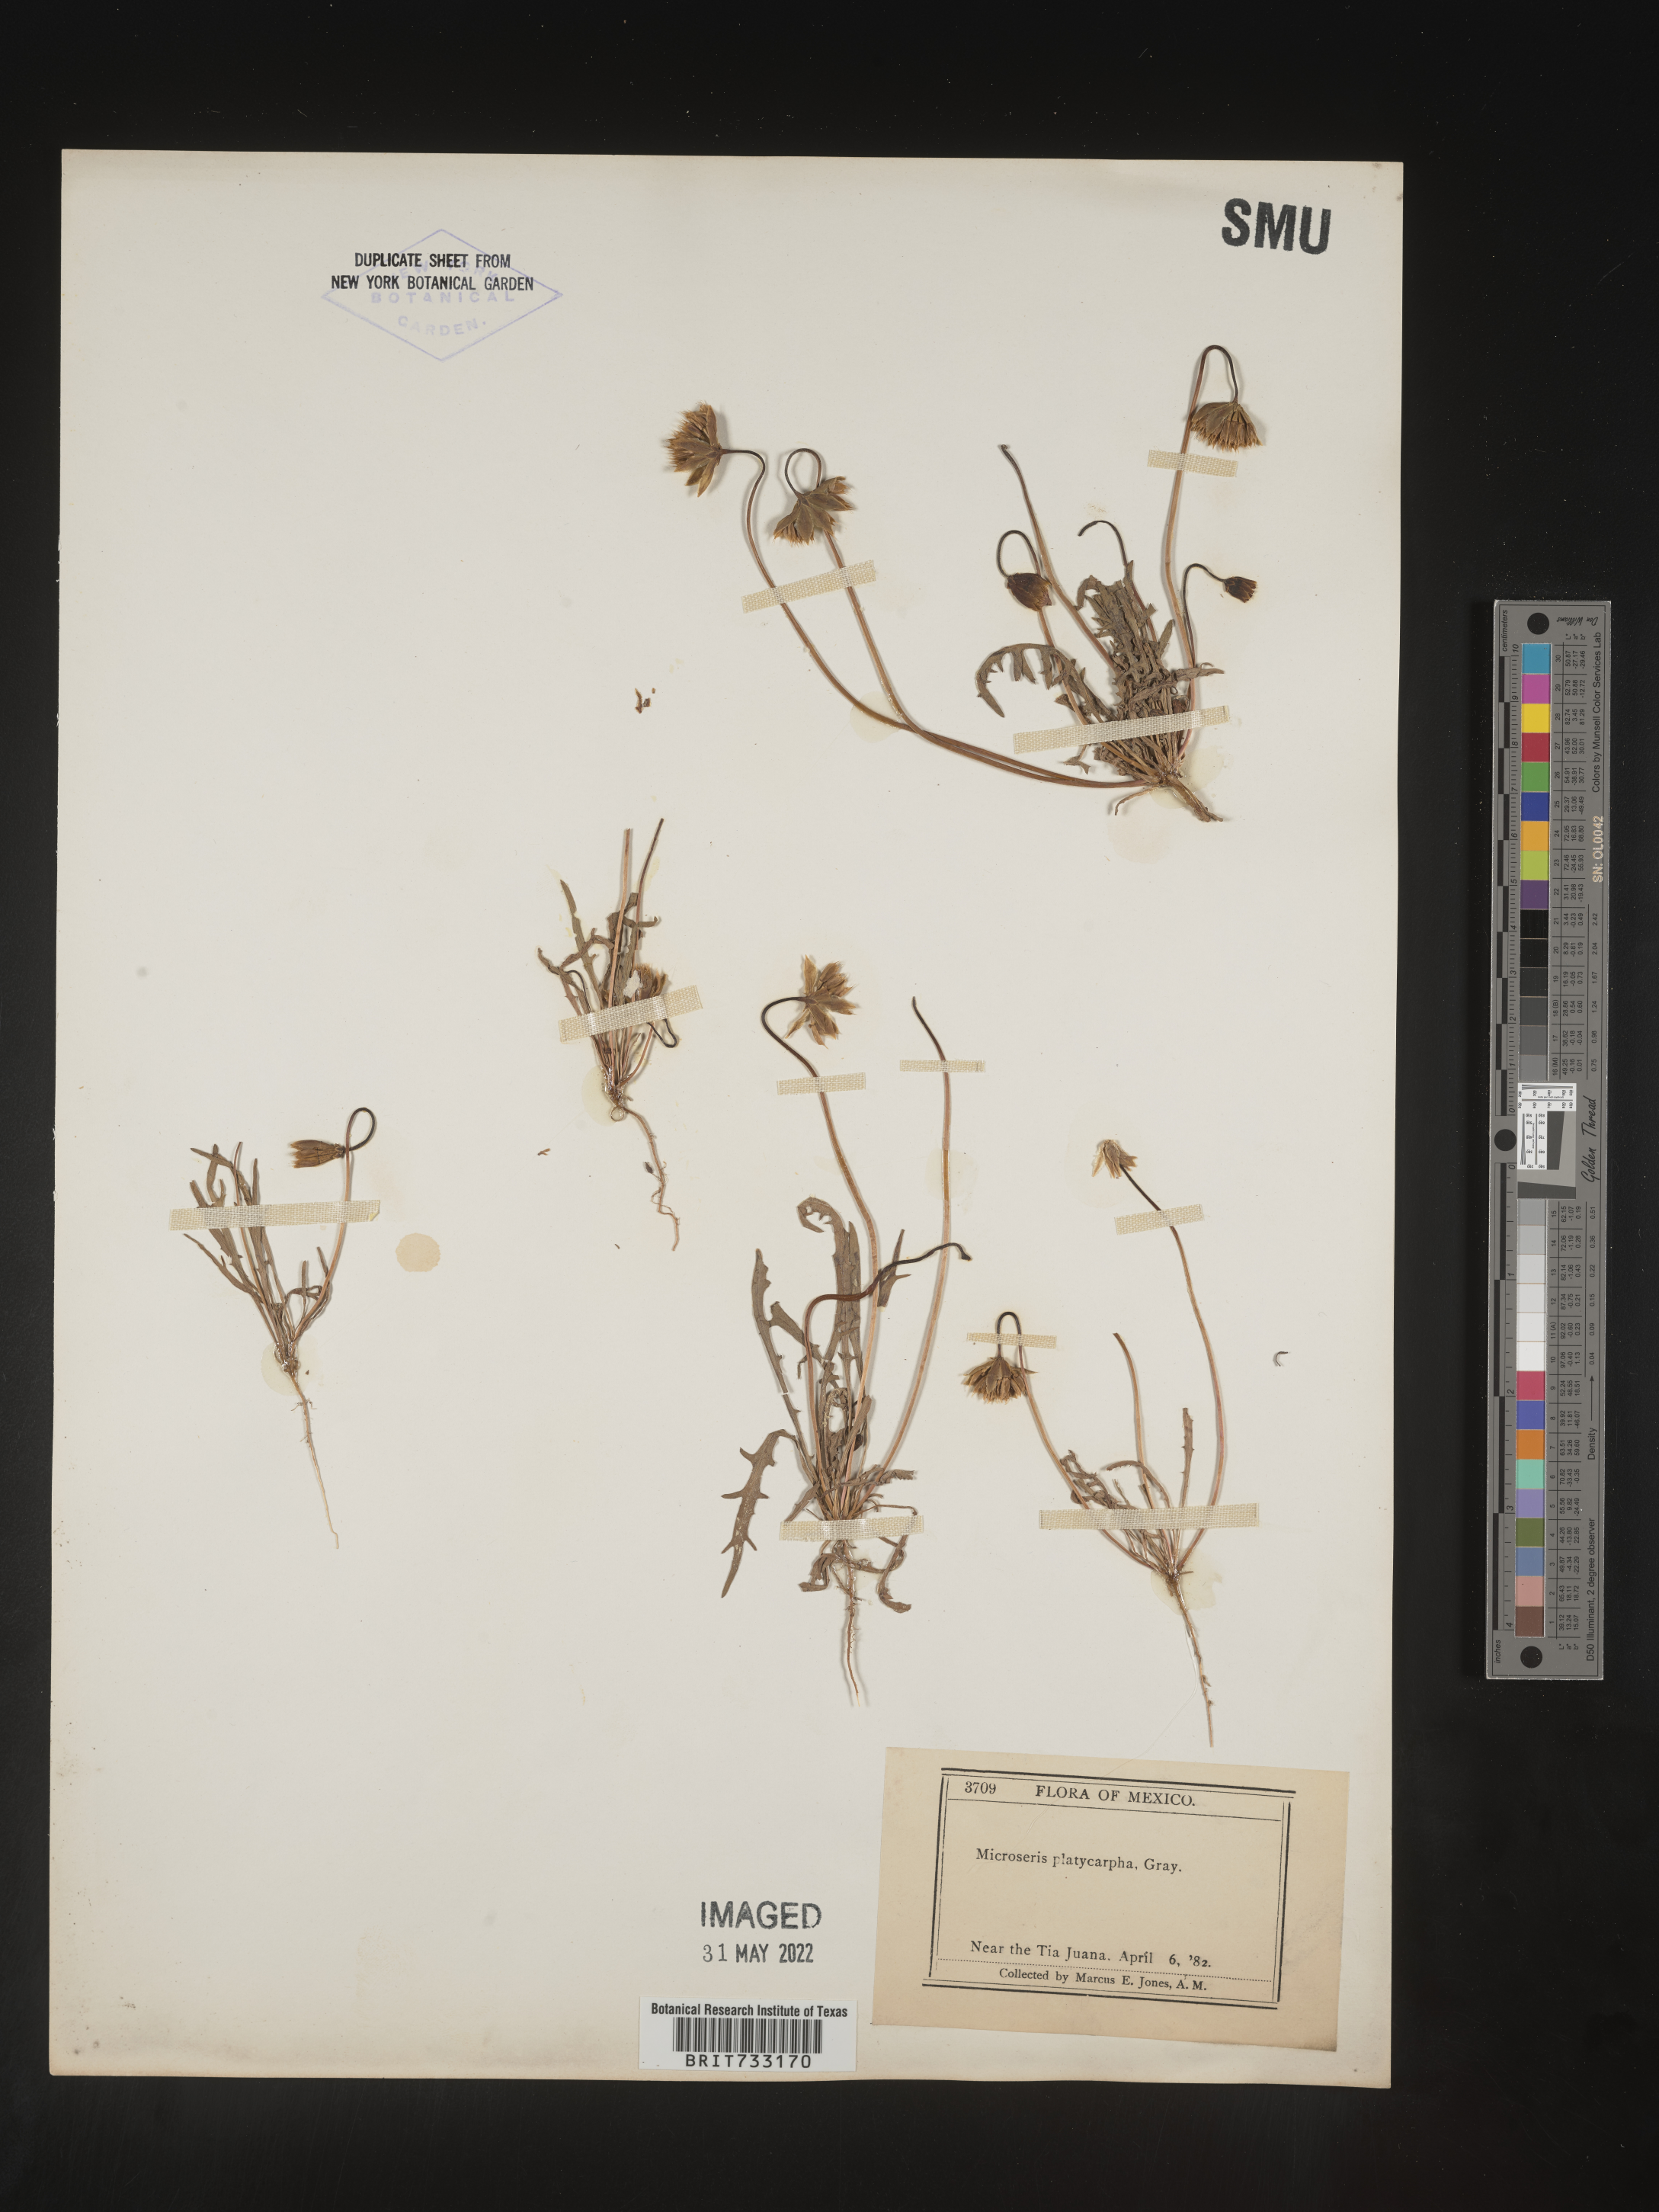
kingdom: Plantae
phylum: Tracheophyta
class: Magnoliopsida
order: Asterales
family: Asteraceae
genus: Microseris
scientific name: Microseris douglasii
